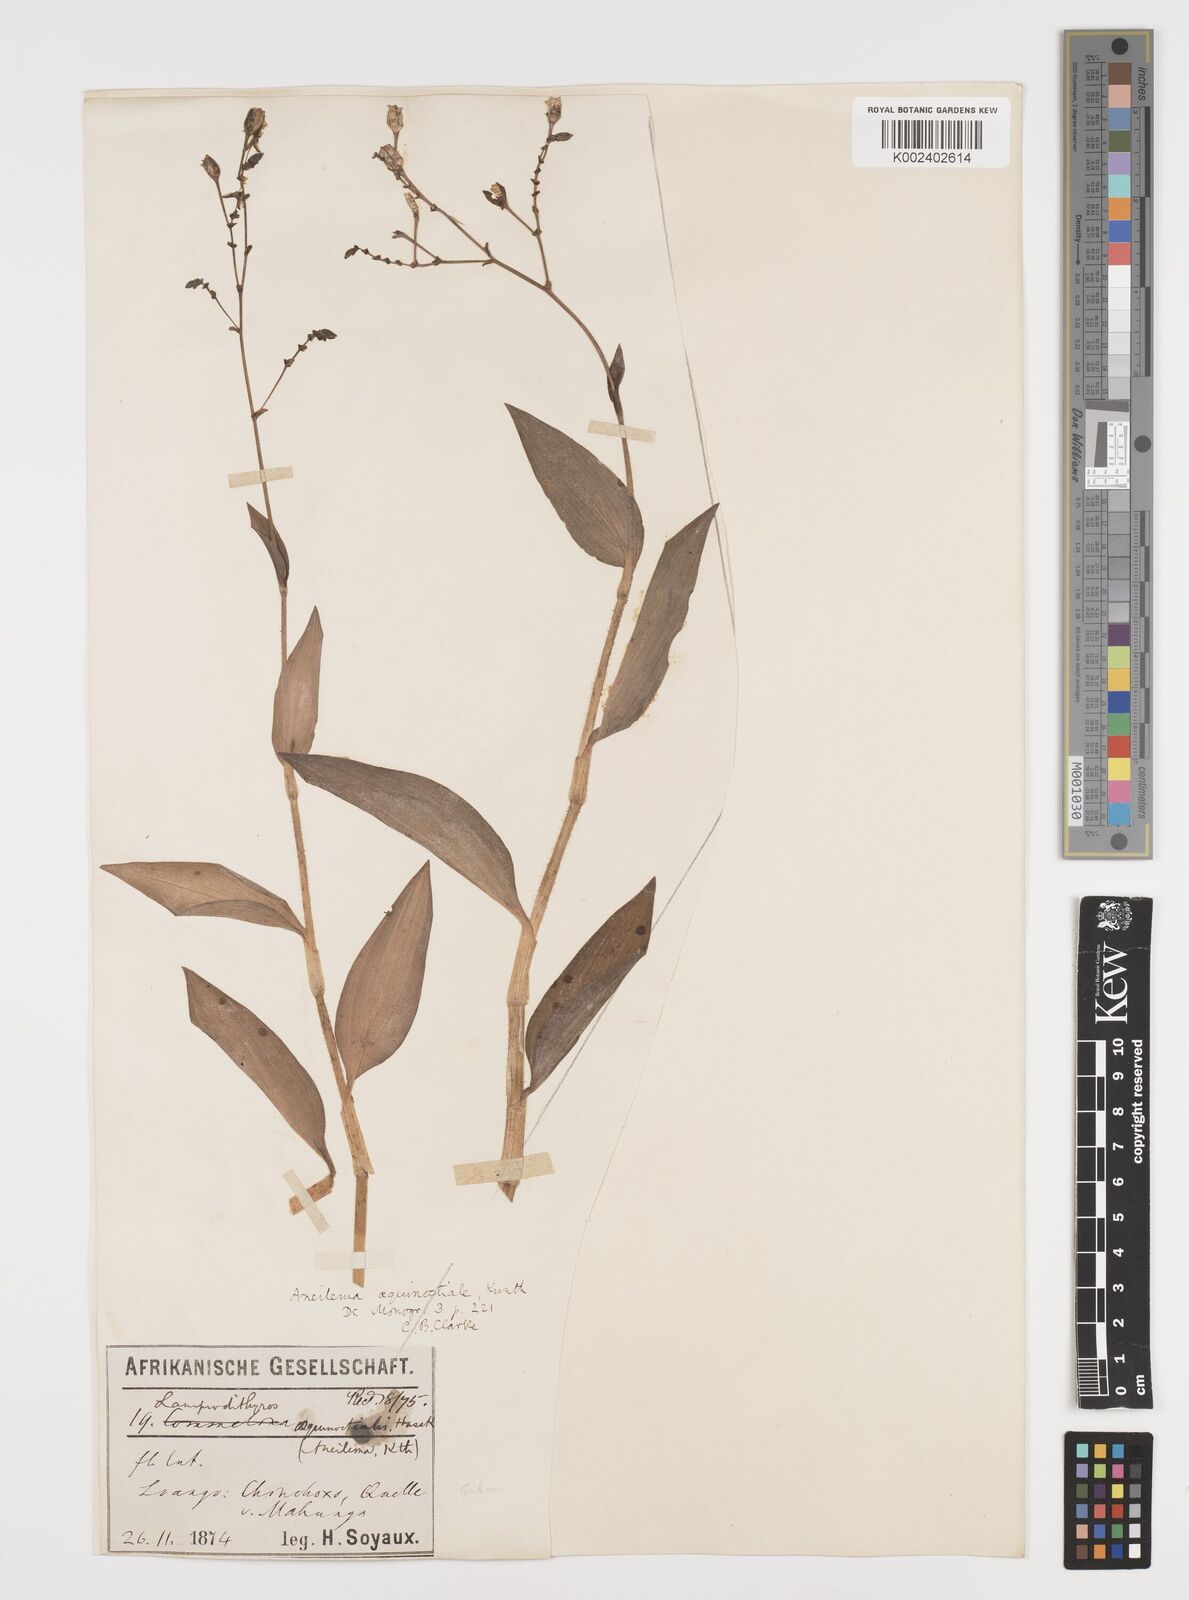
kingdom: Plantae
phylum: Tracheophyta
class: Liliopsida
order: Commelinales
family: Commelinaceae
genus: Aneilema
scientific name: Aneilema aequinoctiale
